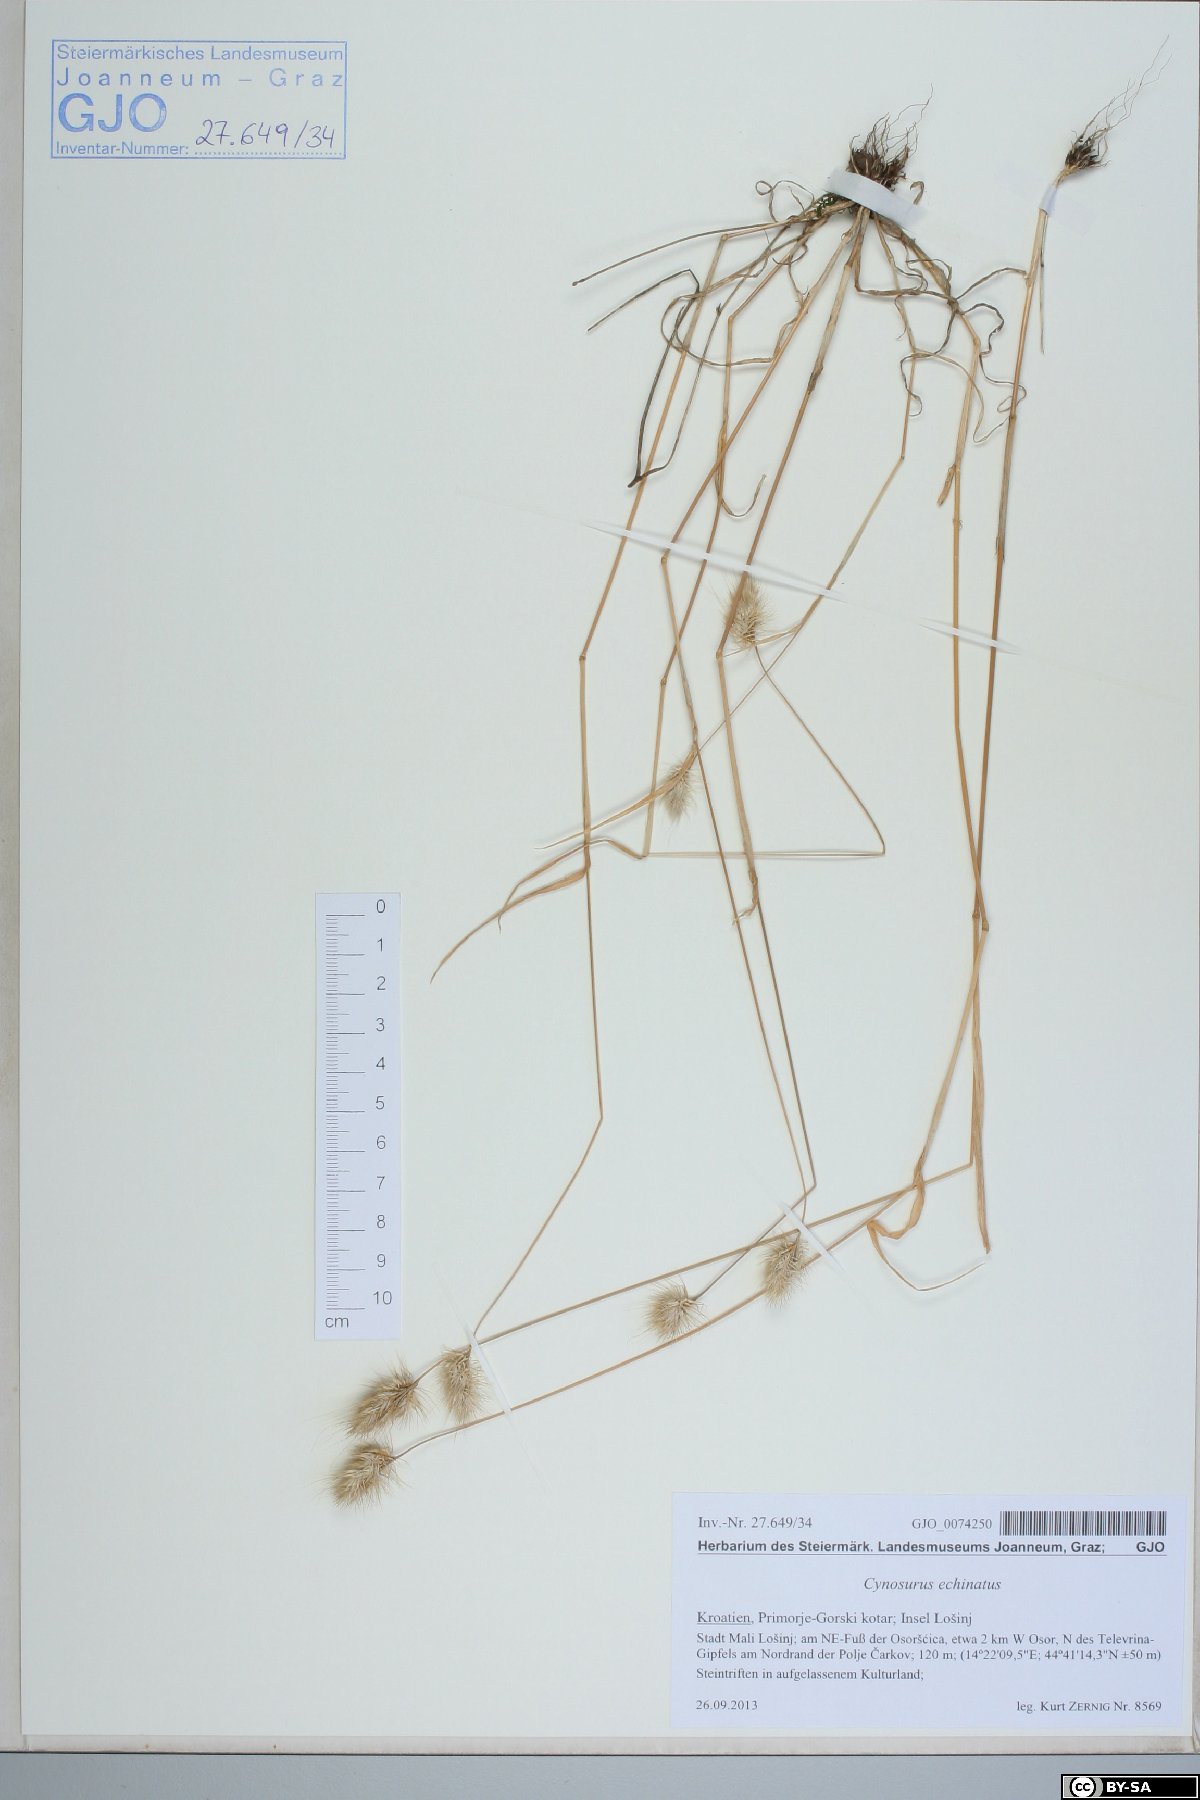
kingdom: Plantae
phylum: Tracheophyta
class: Liliopsida
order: Poales
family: Poaceae
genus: Cynosurus
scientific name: Cynosurus echinatus
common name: Rough dog's-tail
